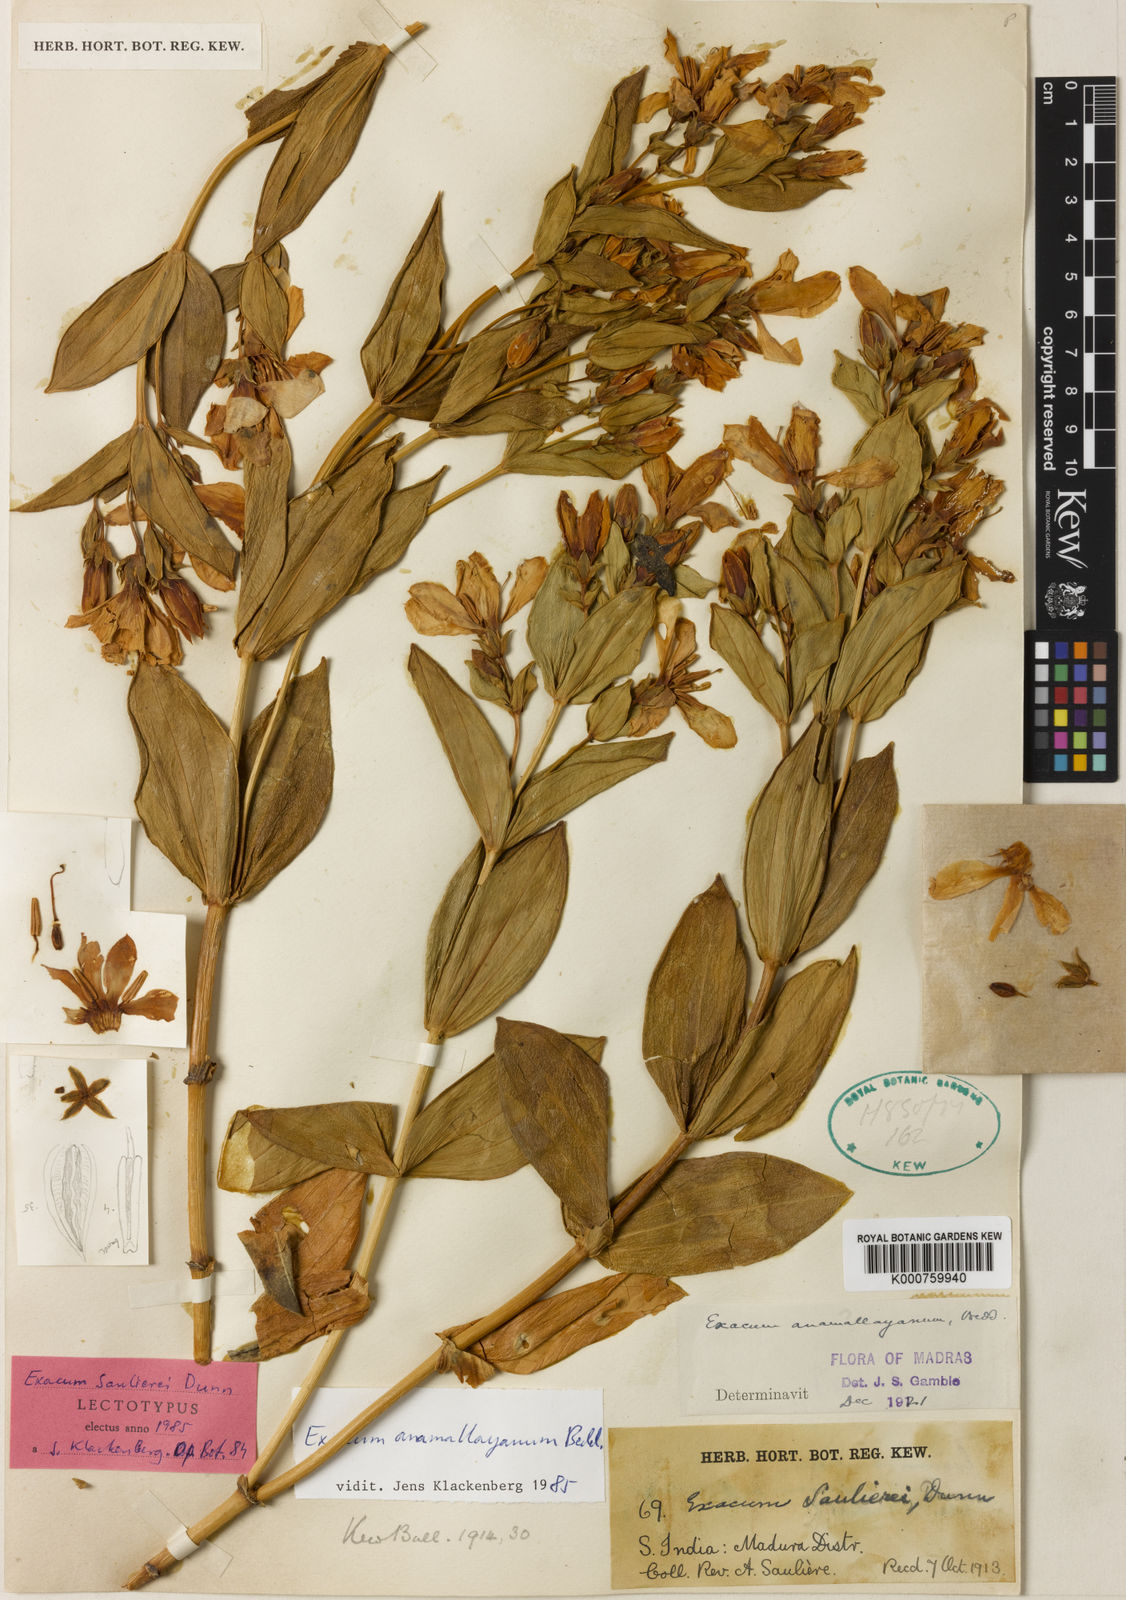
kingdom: Plantae
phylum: Tracheophyta
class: Magnoliopsida
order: Gentianales
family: Gentianaceae
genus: Exacum
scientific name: Exacum anamallayanum
